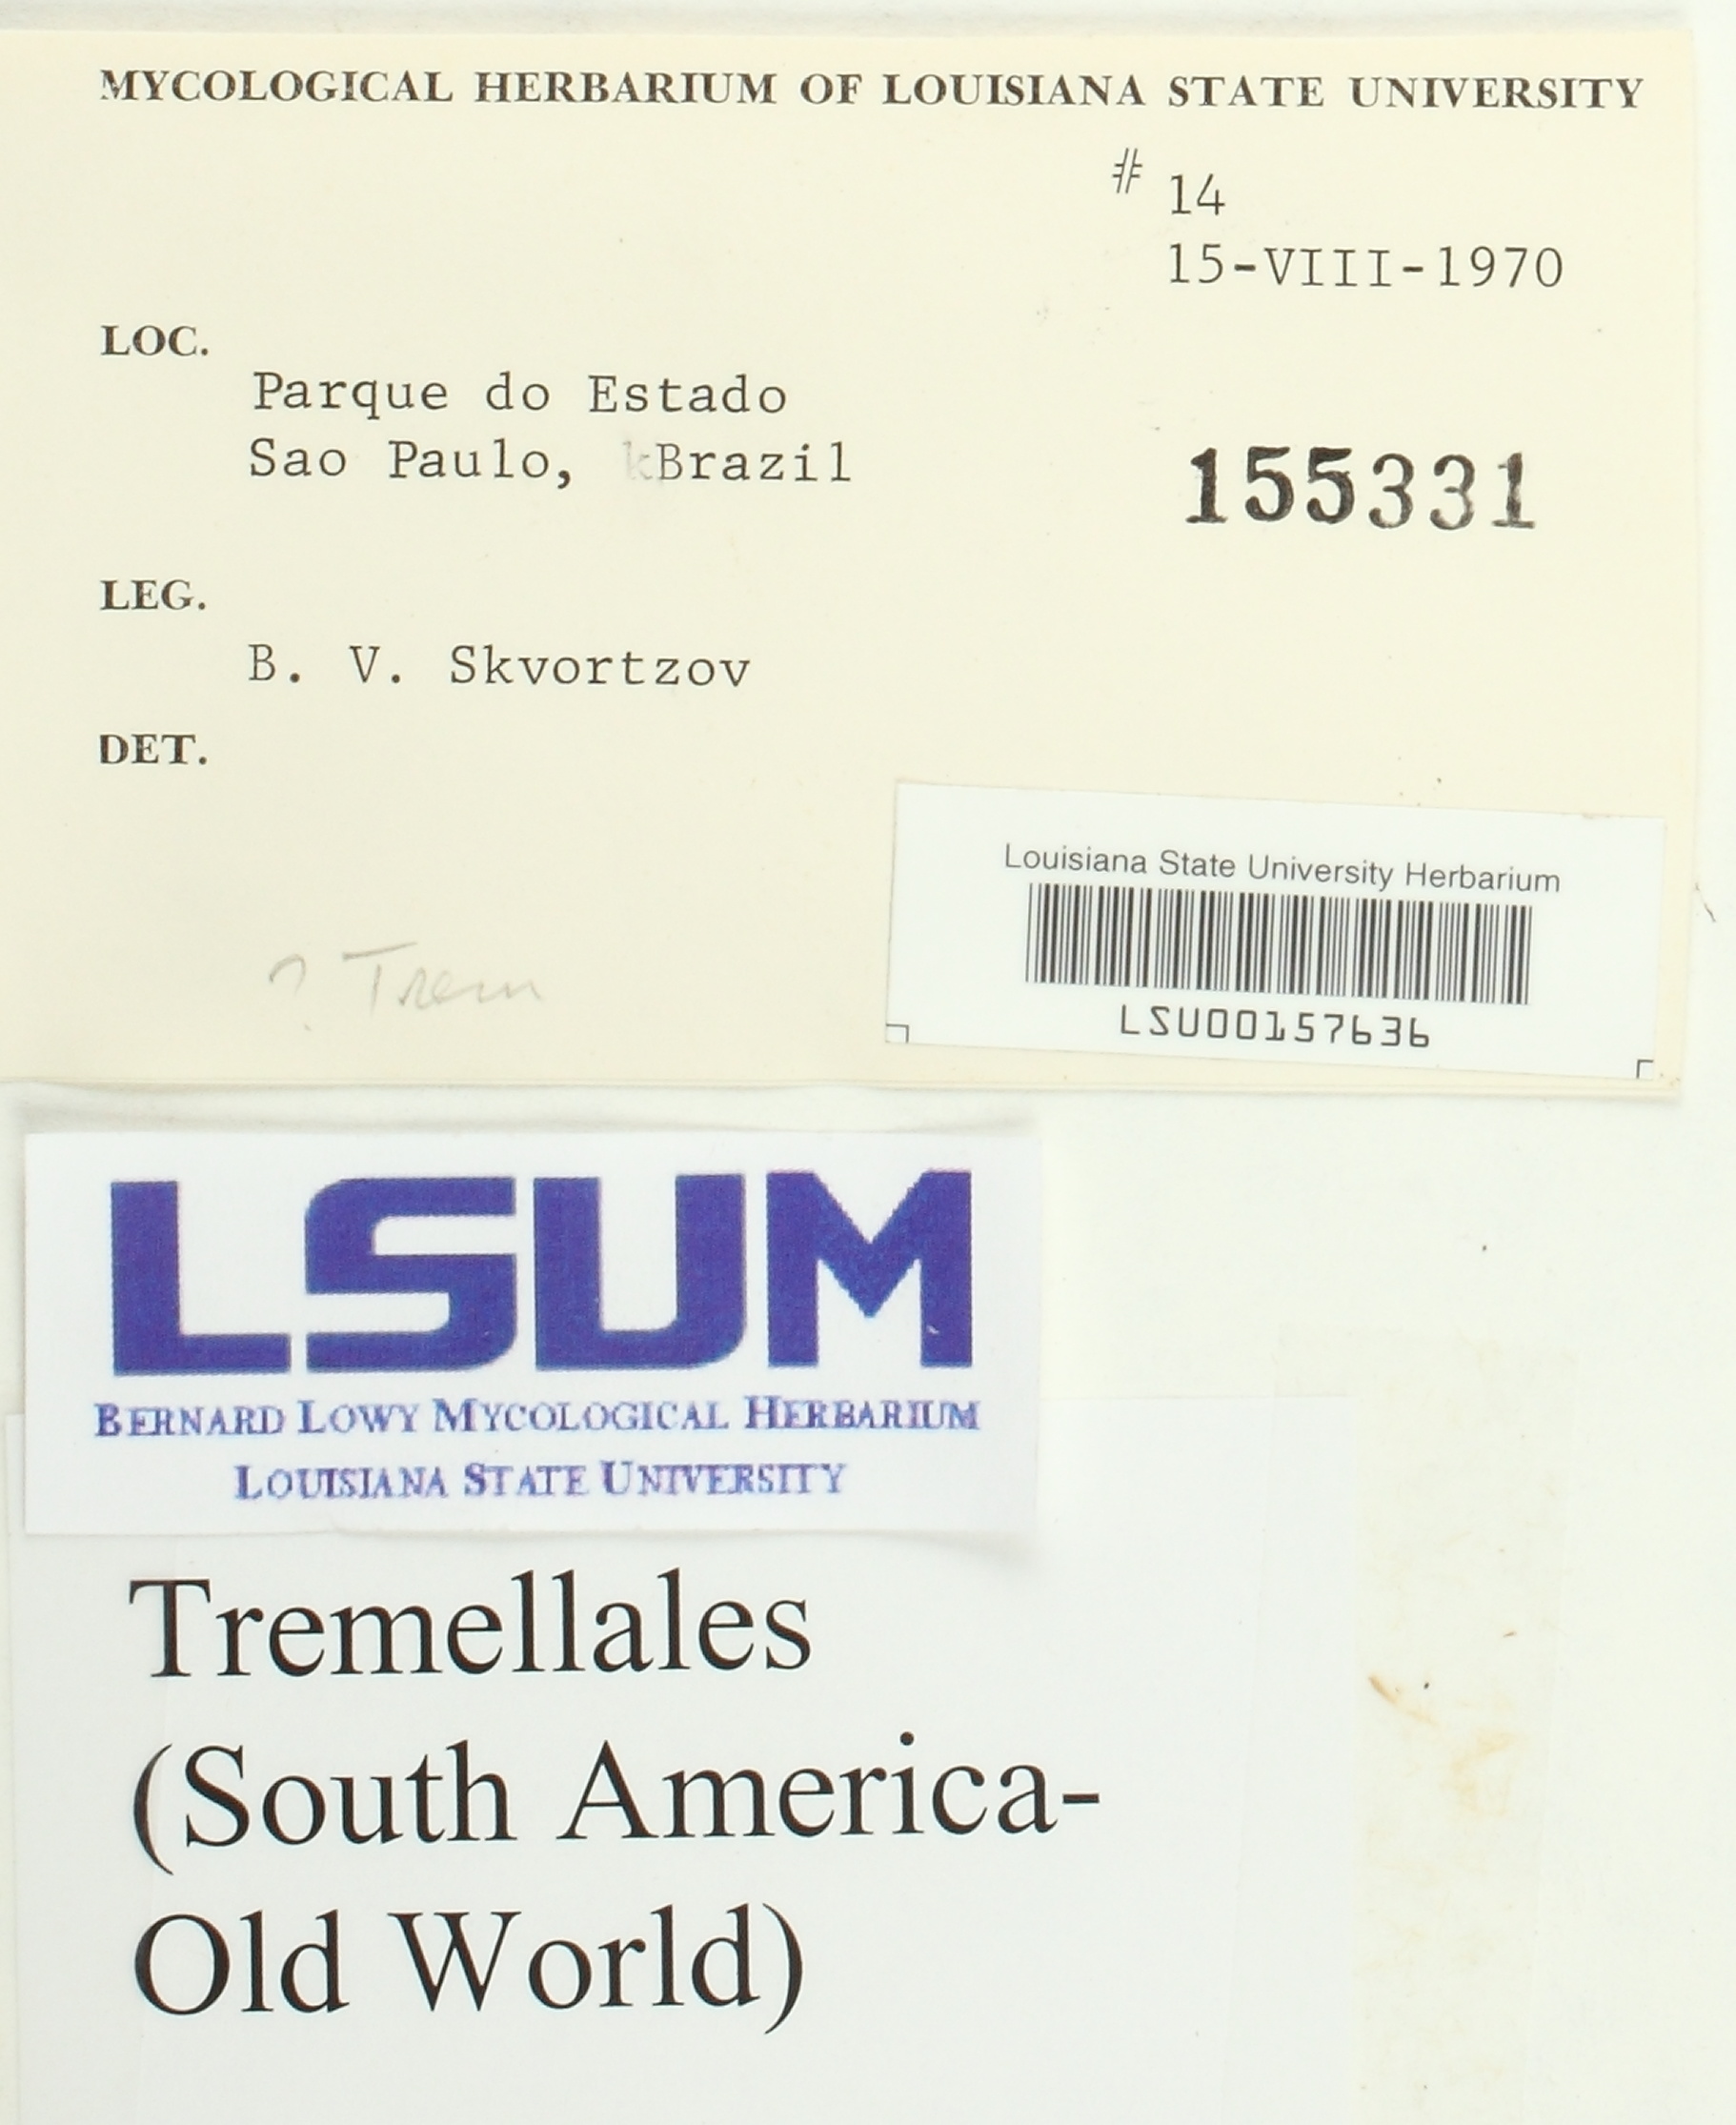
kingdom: Fungi
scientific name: Fungi
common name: Fungi
